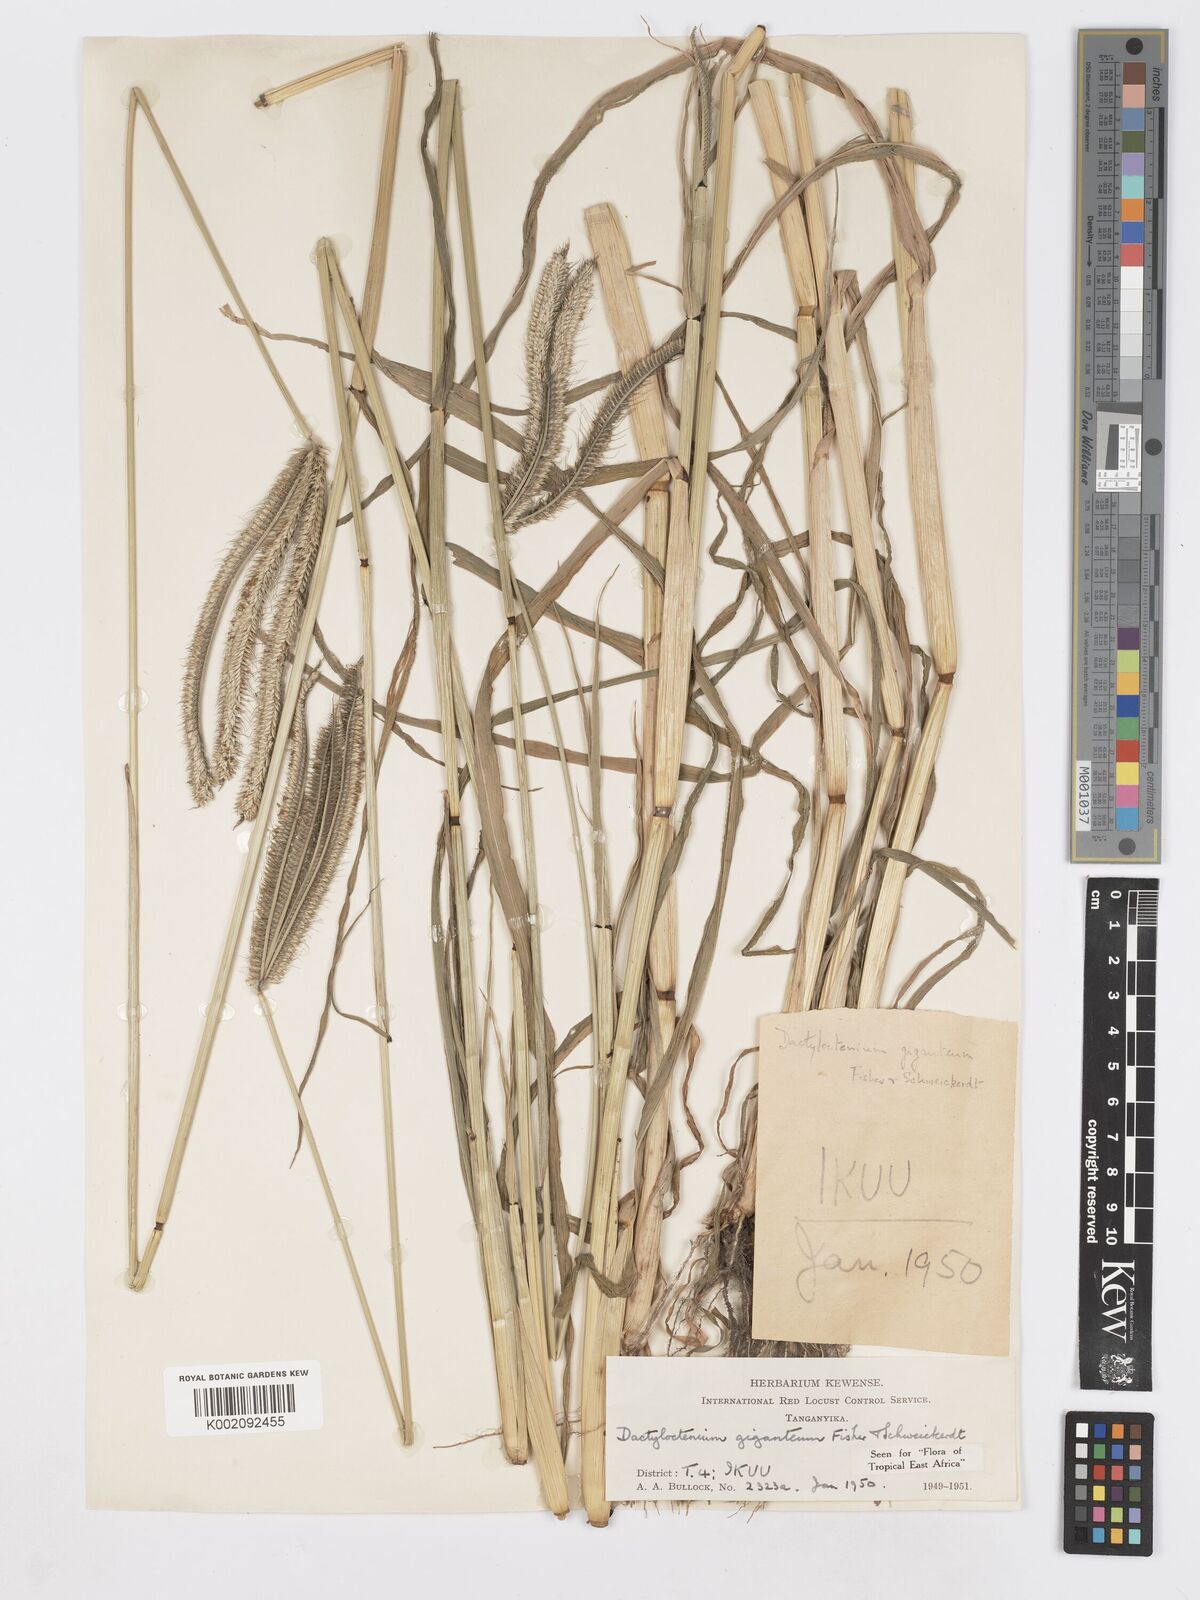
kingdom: Plantae
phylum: Tracheophyta
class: Liliopsida
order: Poales
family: Poaceae
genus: Dactyloctenium
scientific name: Dactyloctenium giganteum
